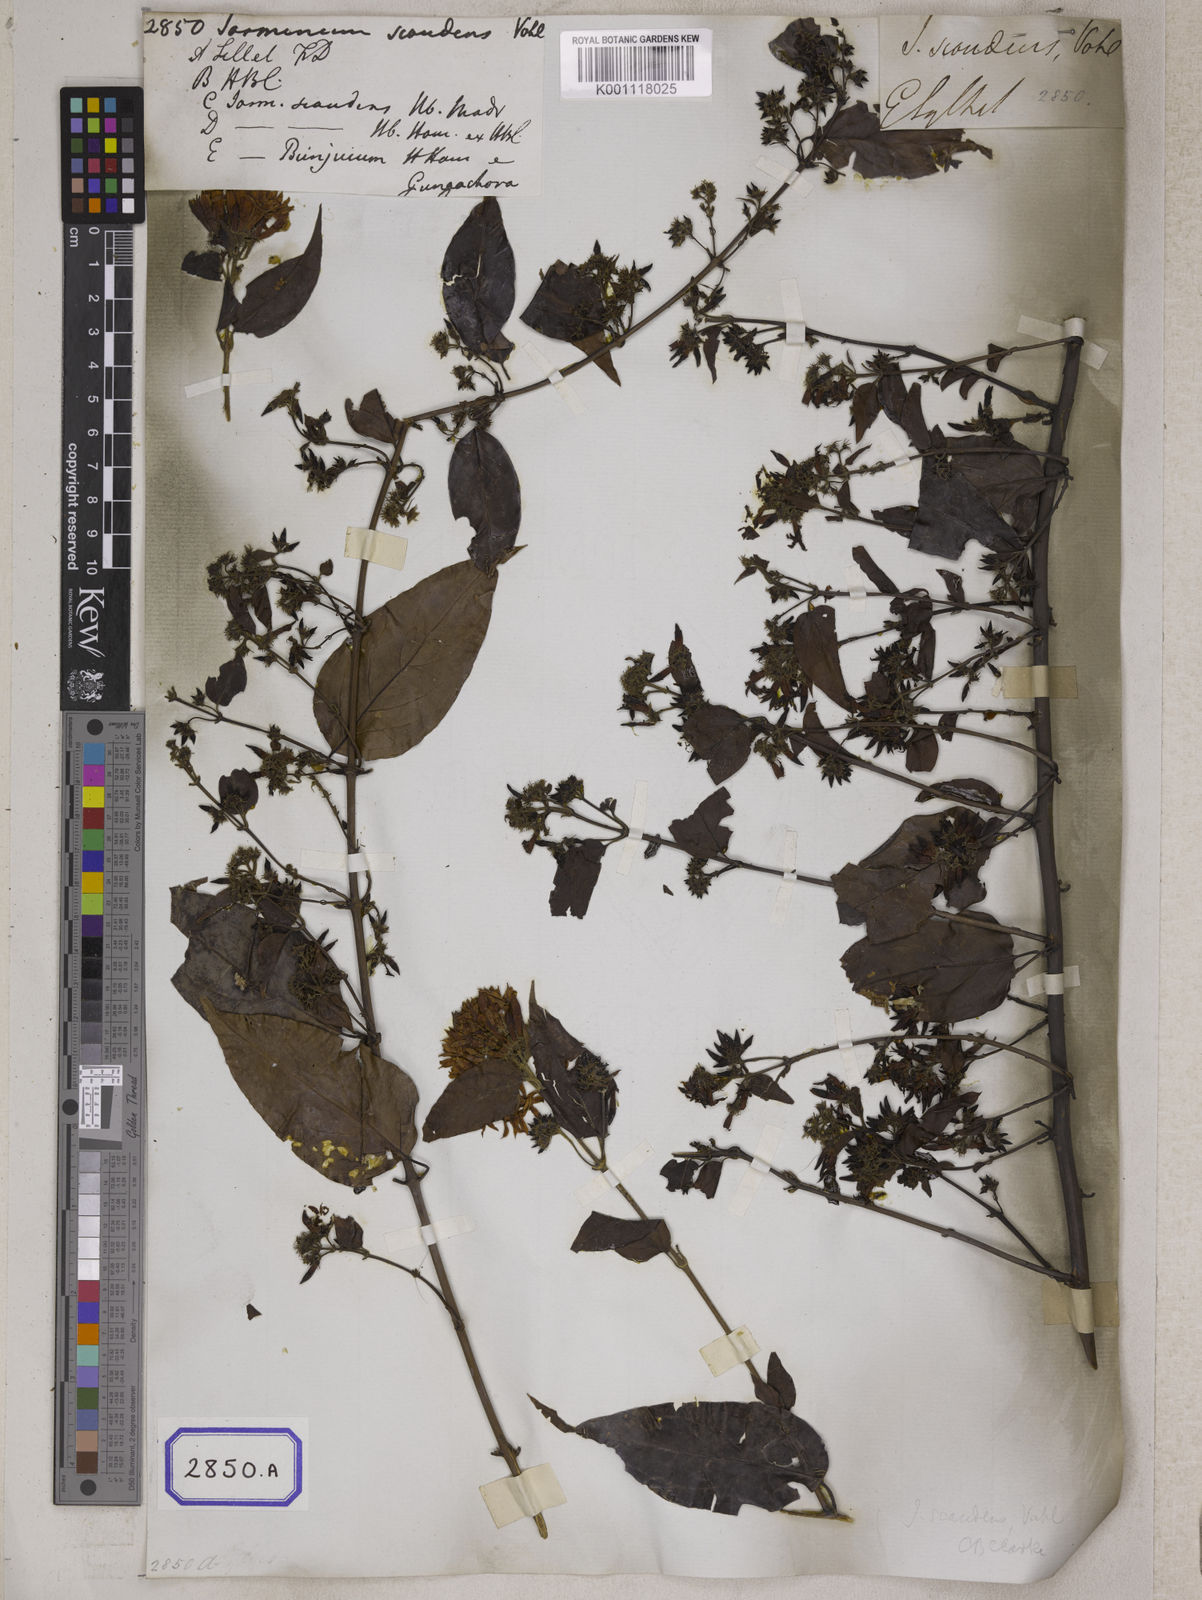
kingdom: Plantae
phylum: Tracheophyta
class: Magnoliopsida
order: Lamiales
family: Oleaceae
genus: Jasminum
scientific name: Jasminum scandens
